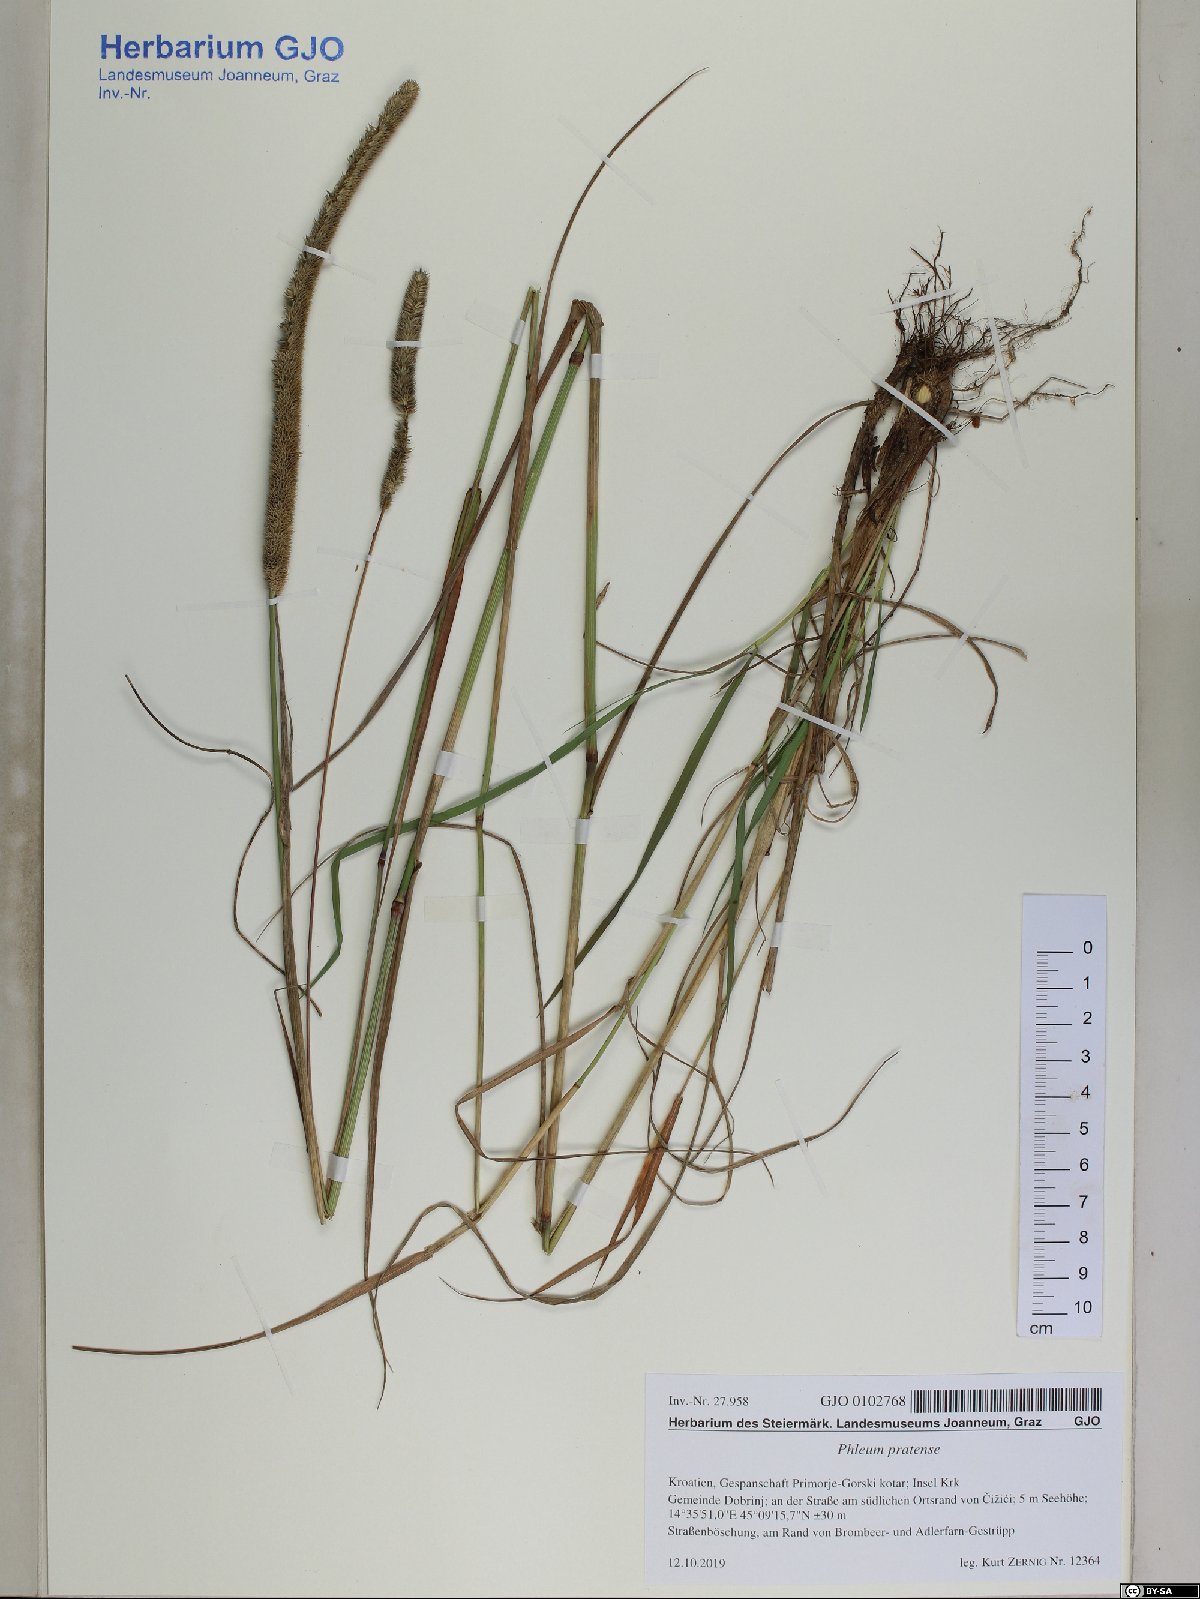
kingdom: Plantae
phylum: Tracheophyta
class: Liliopsida
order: Poales
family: Poaceae
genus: Phleum
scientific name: Phleum pratense
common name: Timothy grass
